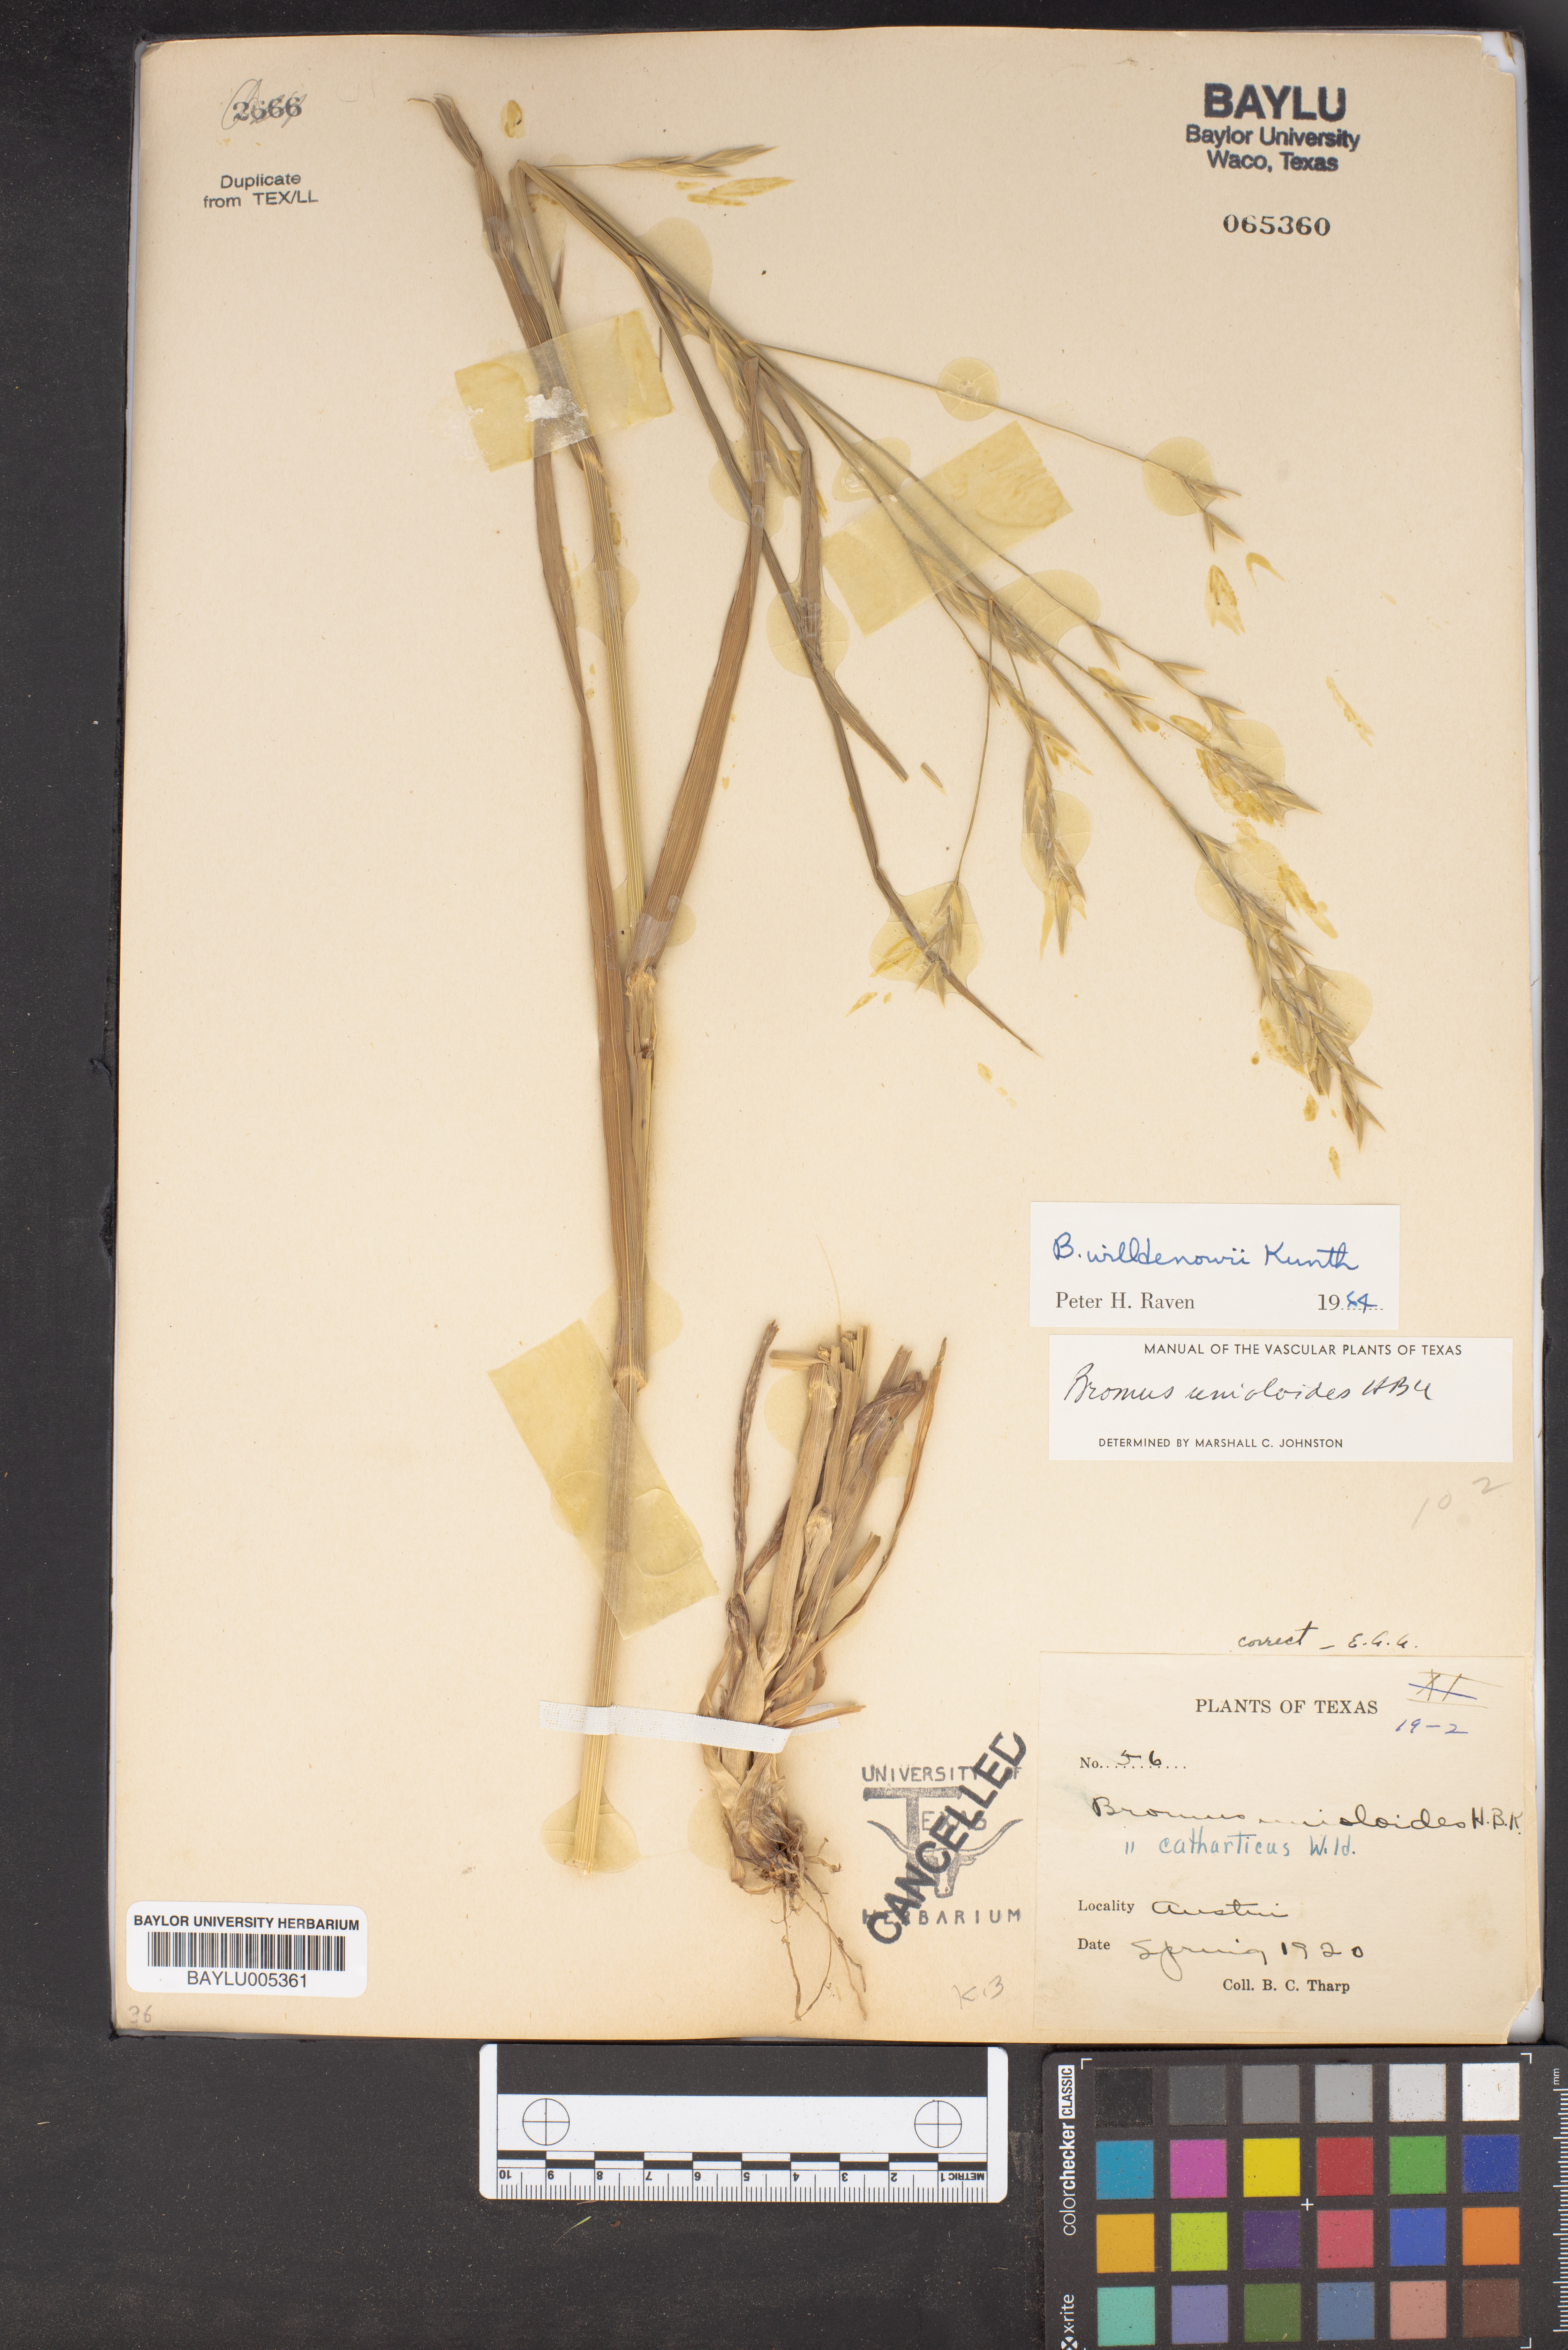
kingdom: Plantae
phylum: Tracheophyta
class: Liliopsida
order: Poales
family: Poaceae
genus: Bromus
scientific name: Bromus catharticus
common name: Rescuegrass
